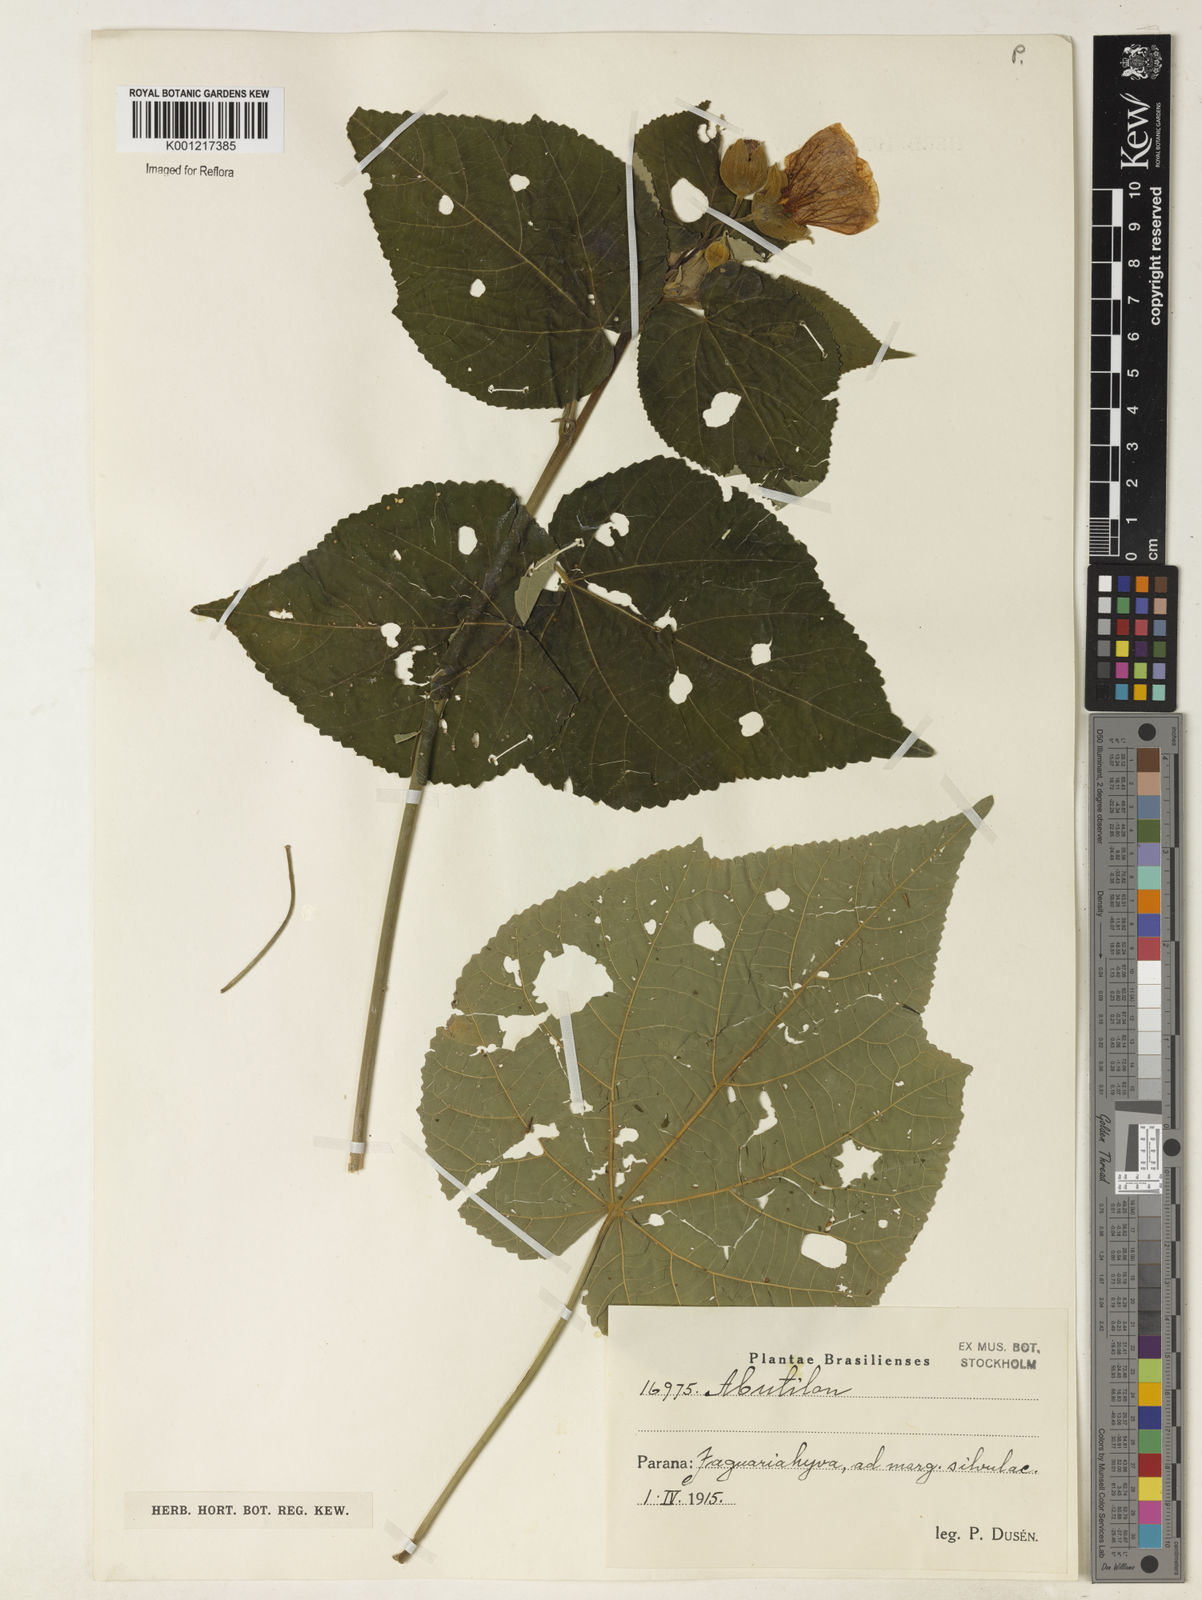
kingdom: Plantae
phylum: Tracheophyta
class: Magnoliopsida
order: Malvales
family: Malvaceae
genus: Abutilon
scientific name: Abutilon
